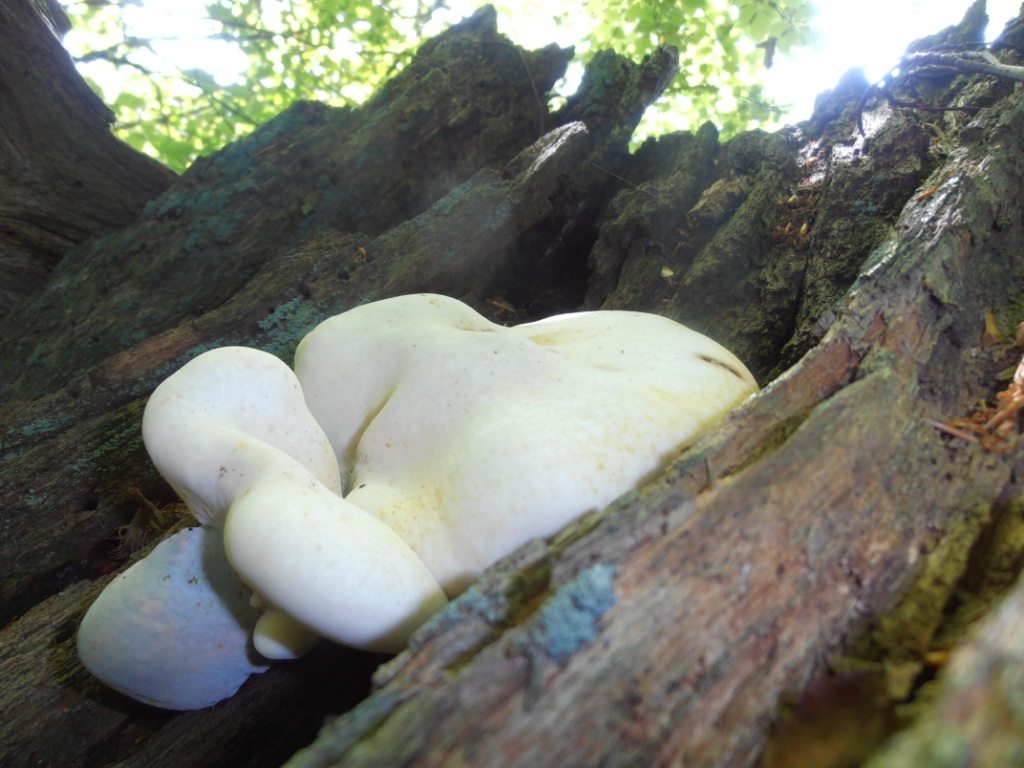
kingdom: Fungi
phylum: Basidiomycota
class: Agaricomycetes
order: Polyporales
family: Fomitopsidaceae
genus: Buglossoporus
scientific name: Buglossoporus quercinus
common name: egetunge
